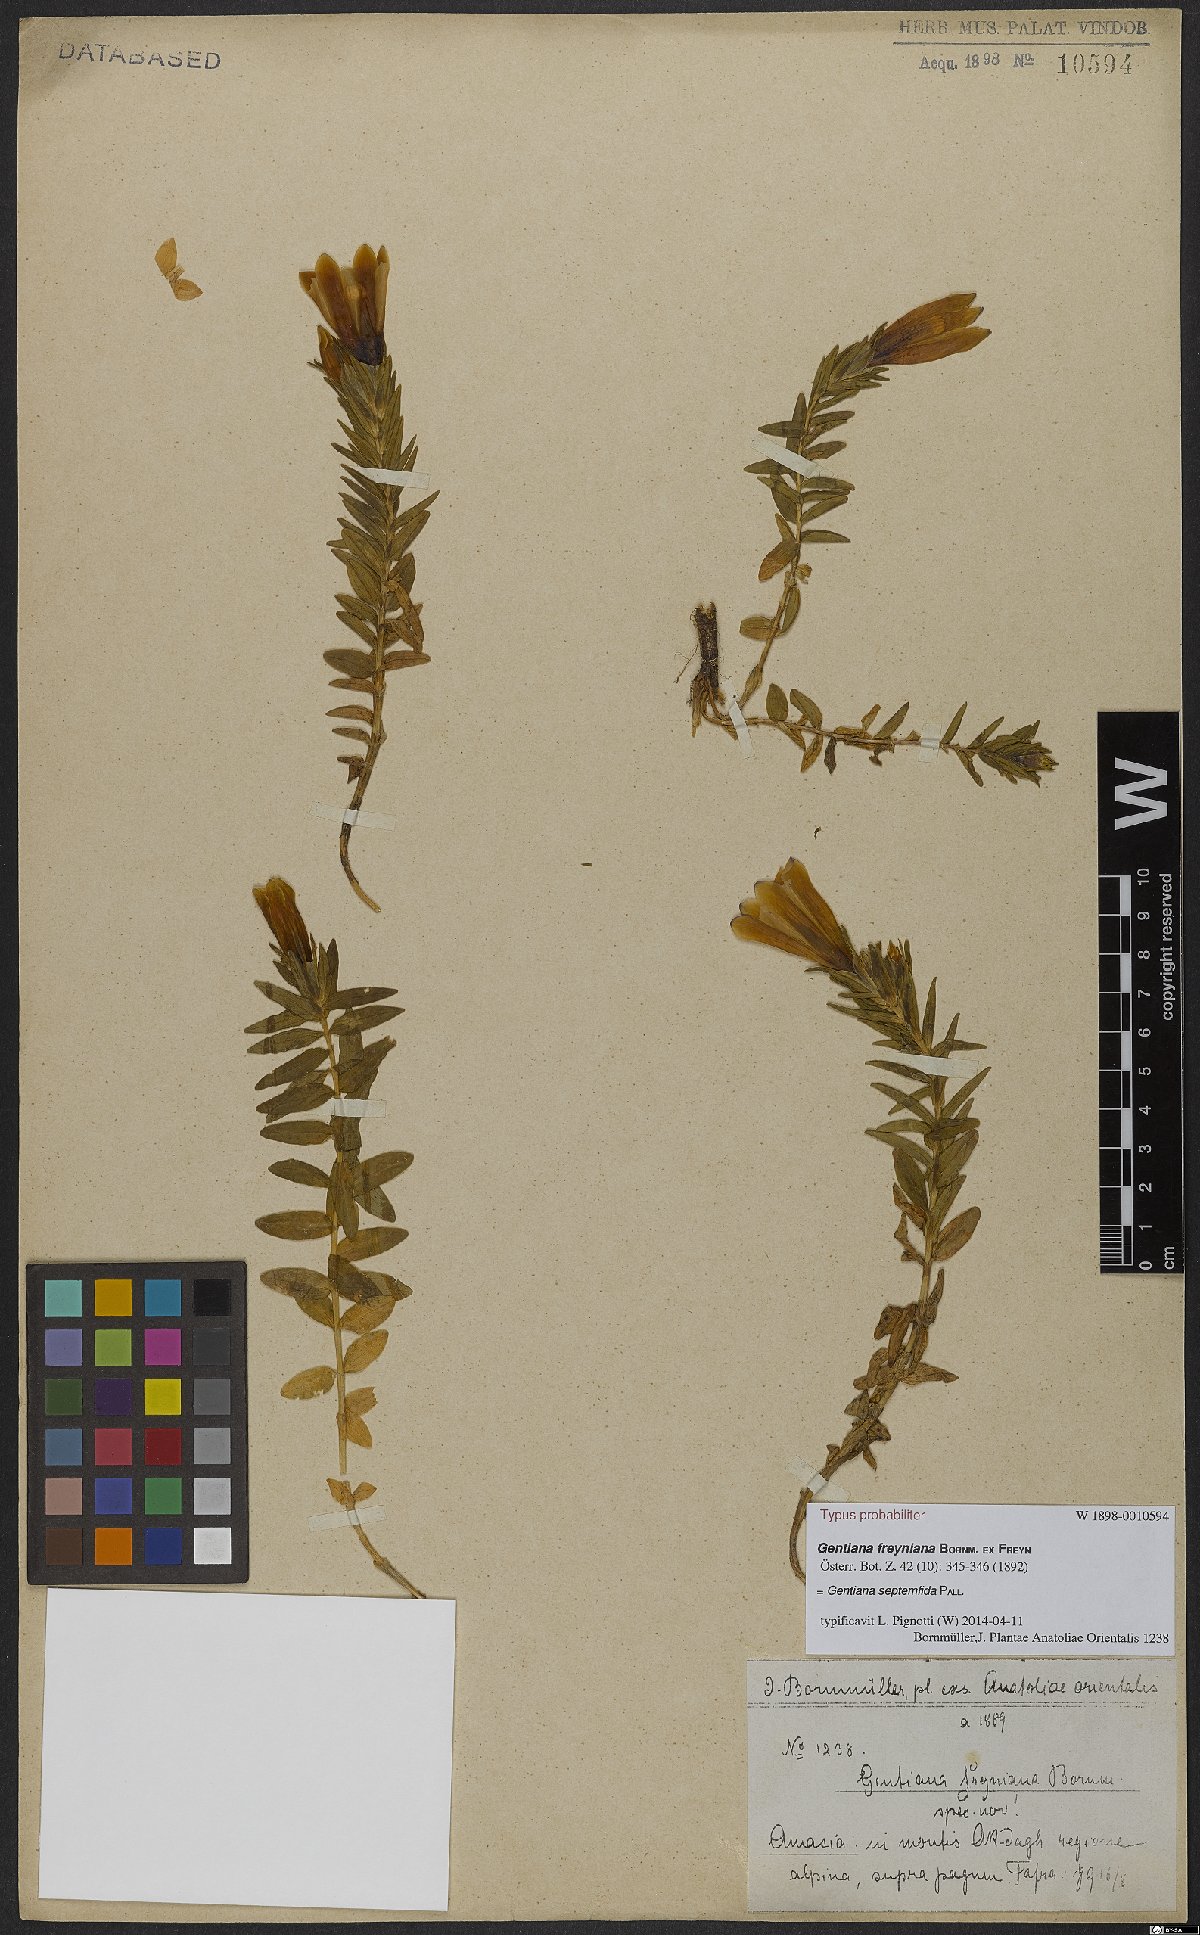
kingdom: Plantae
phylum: Tracheophyta
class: Magnoliopsida
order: Gentianales
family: Gentianaceae
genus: Gentiana
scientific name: Gentiana septemfida
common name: Crested gentian
